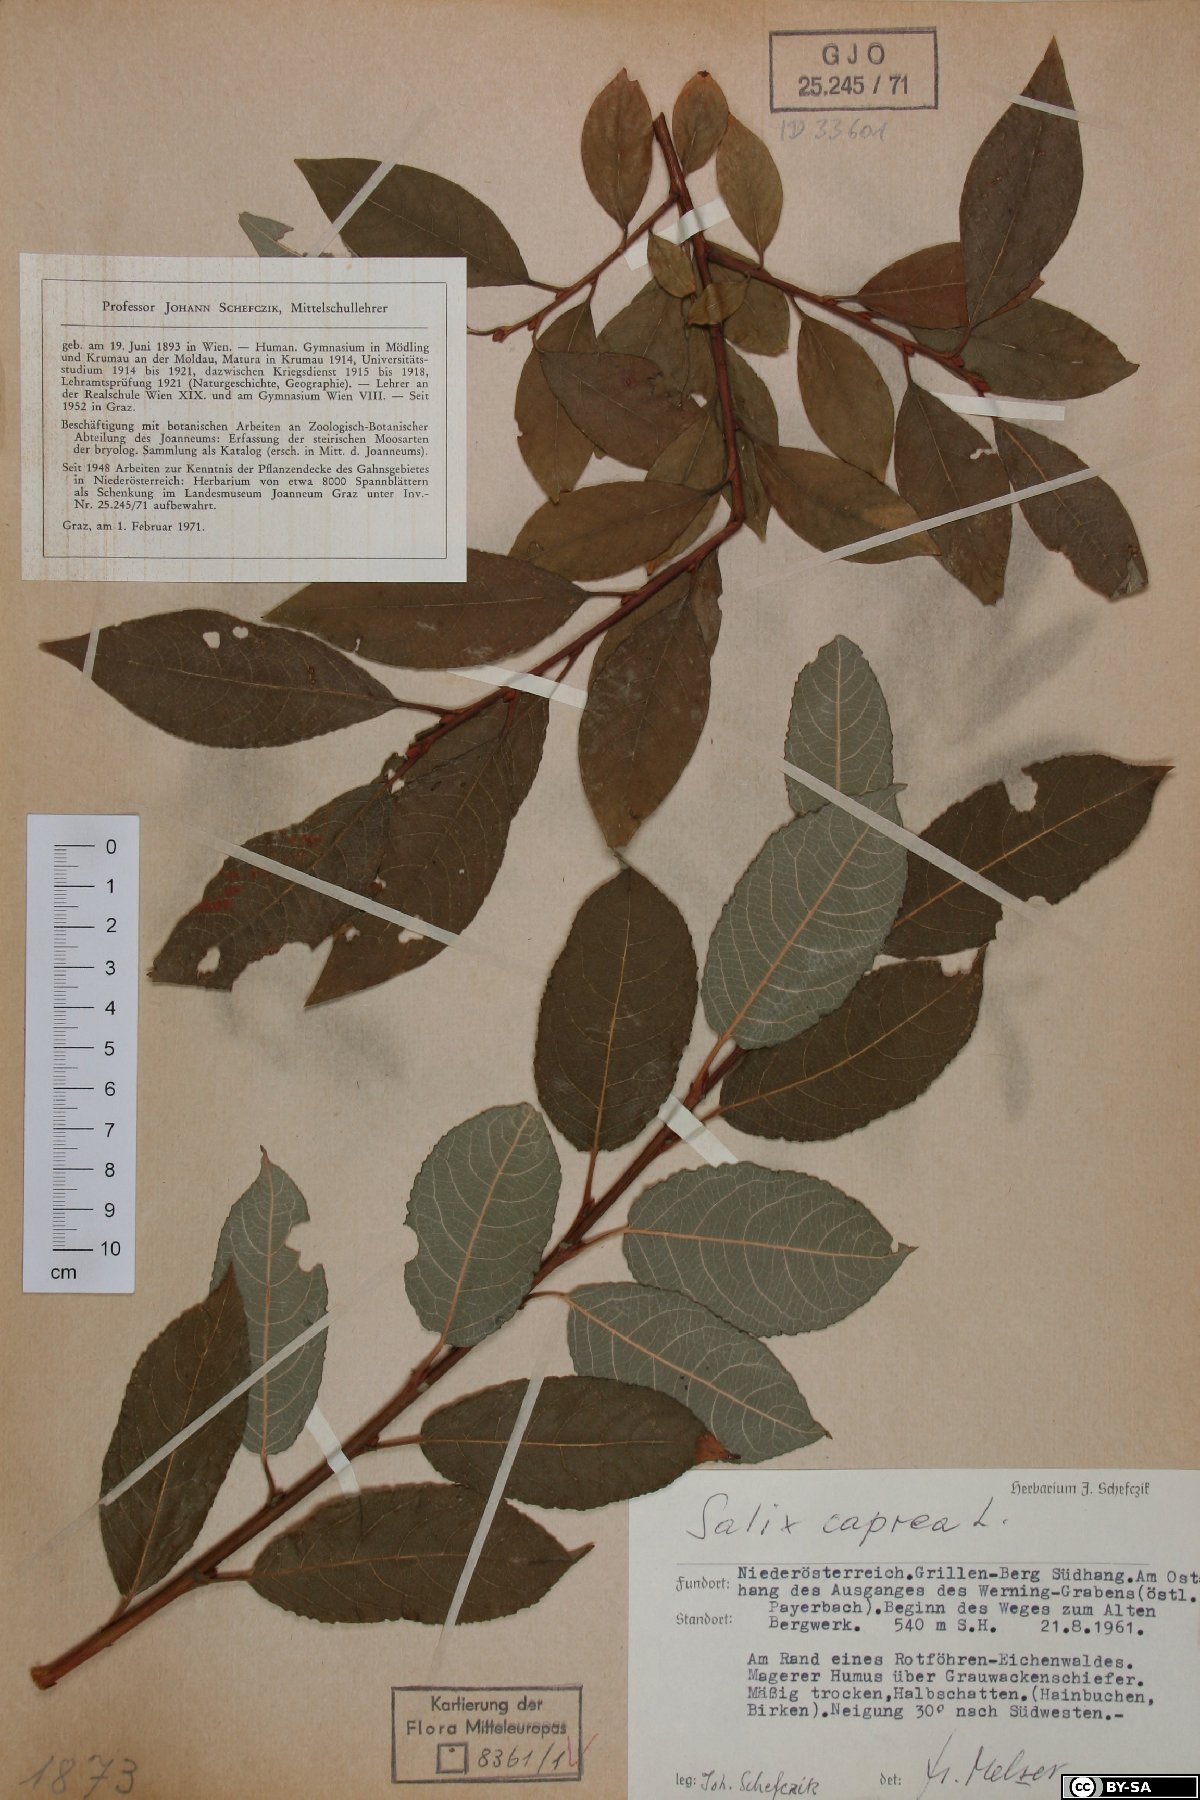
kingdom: Plantae
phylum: Tracheophyta
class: Magnoliopsida
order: Malpighiales
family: Salicaceae
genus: Salix
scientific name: Salix caprea
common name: Goat willow
